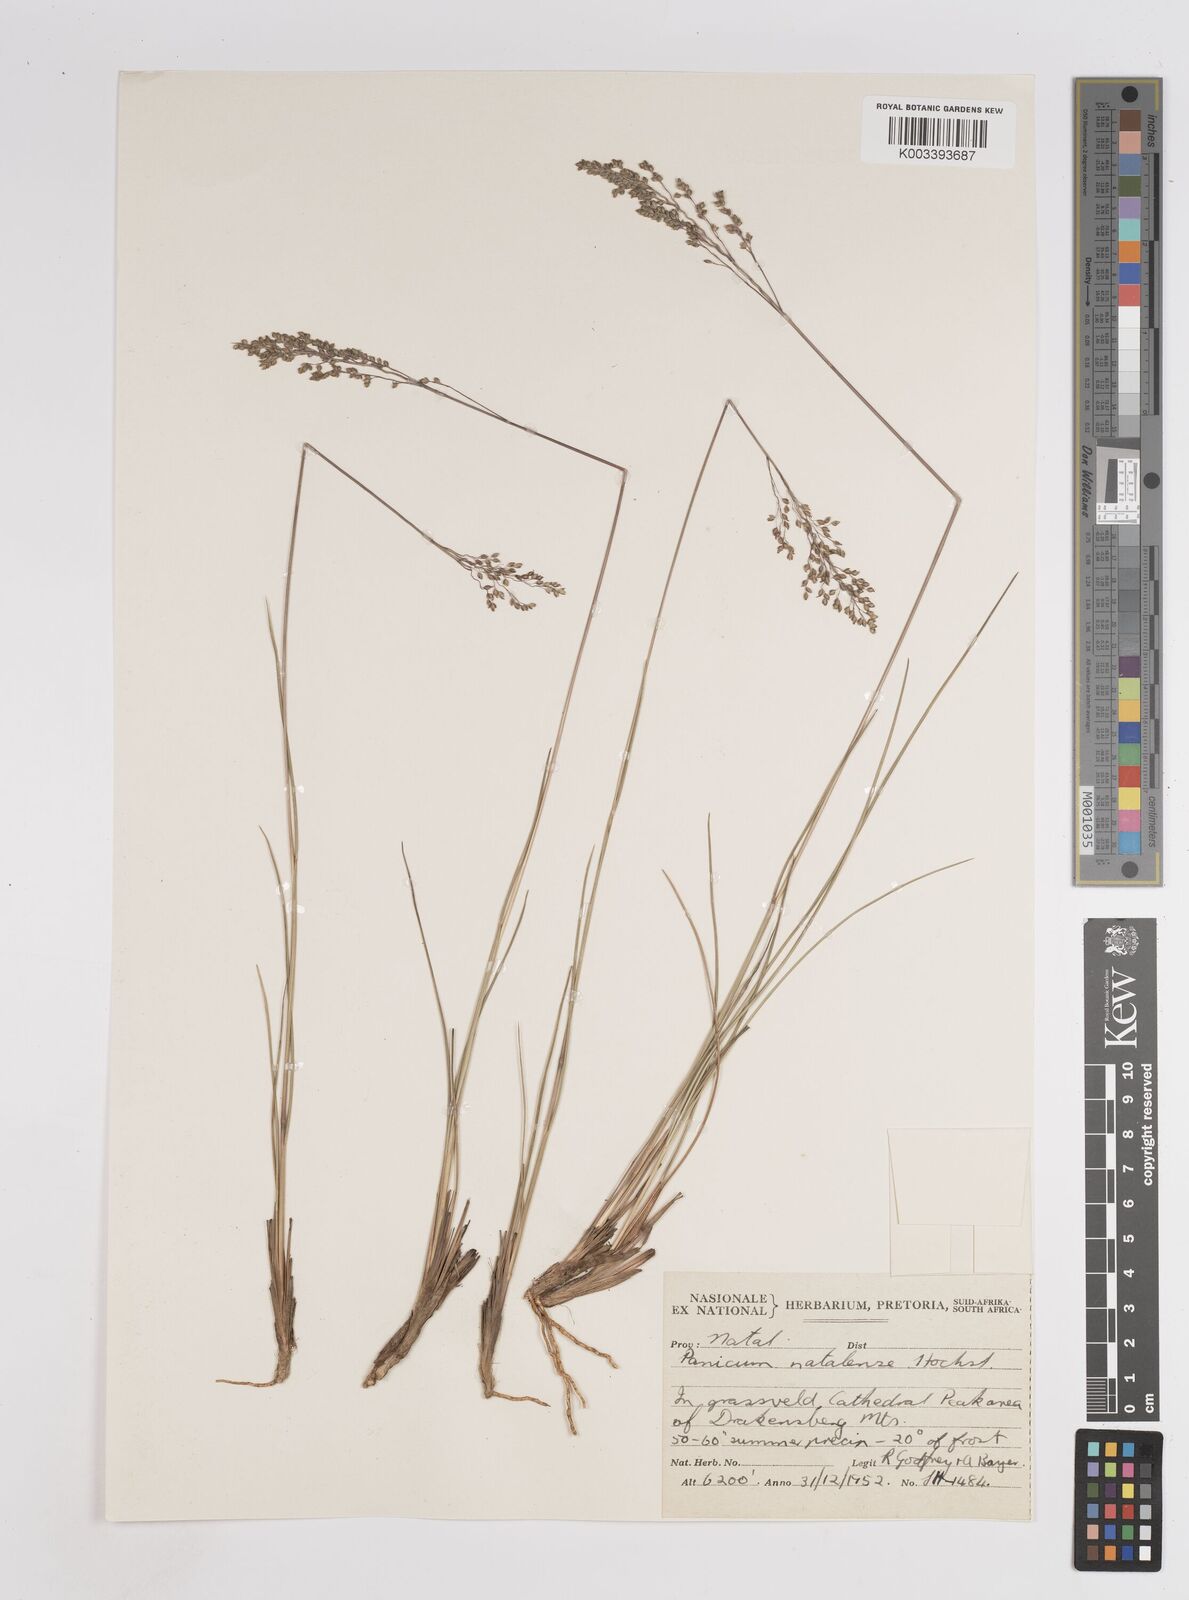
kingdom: Plantae
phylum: Tracheophyta
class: Liliopsida
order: Poales
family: Poaceae
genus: Trichanthecium
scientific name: Trichanthecium natalense
